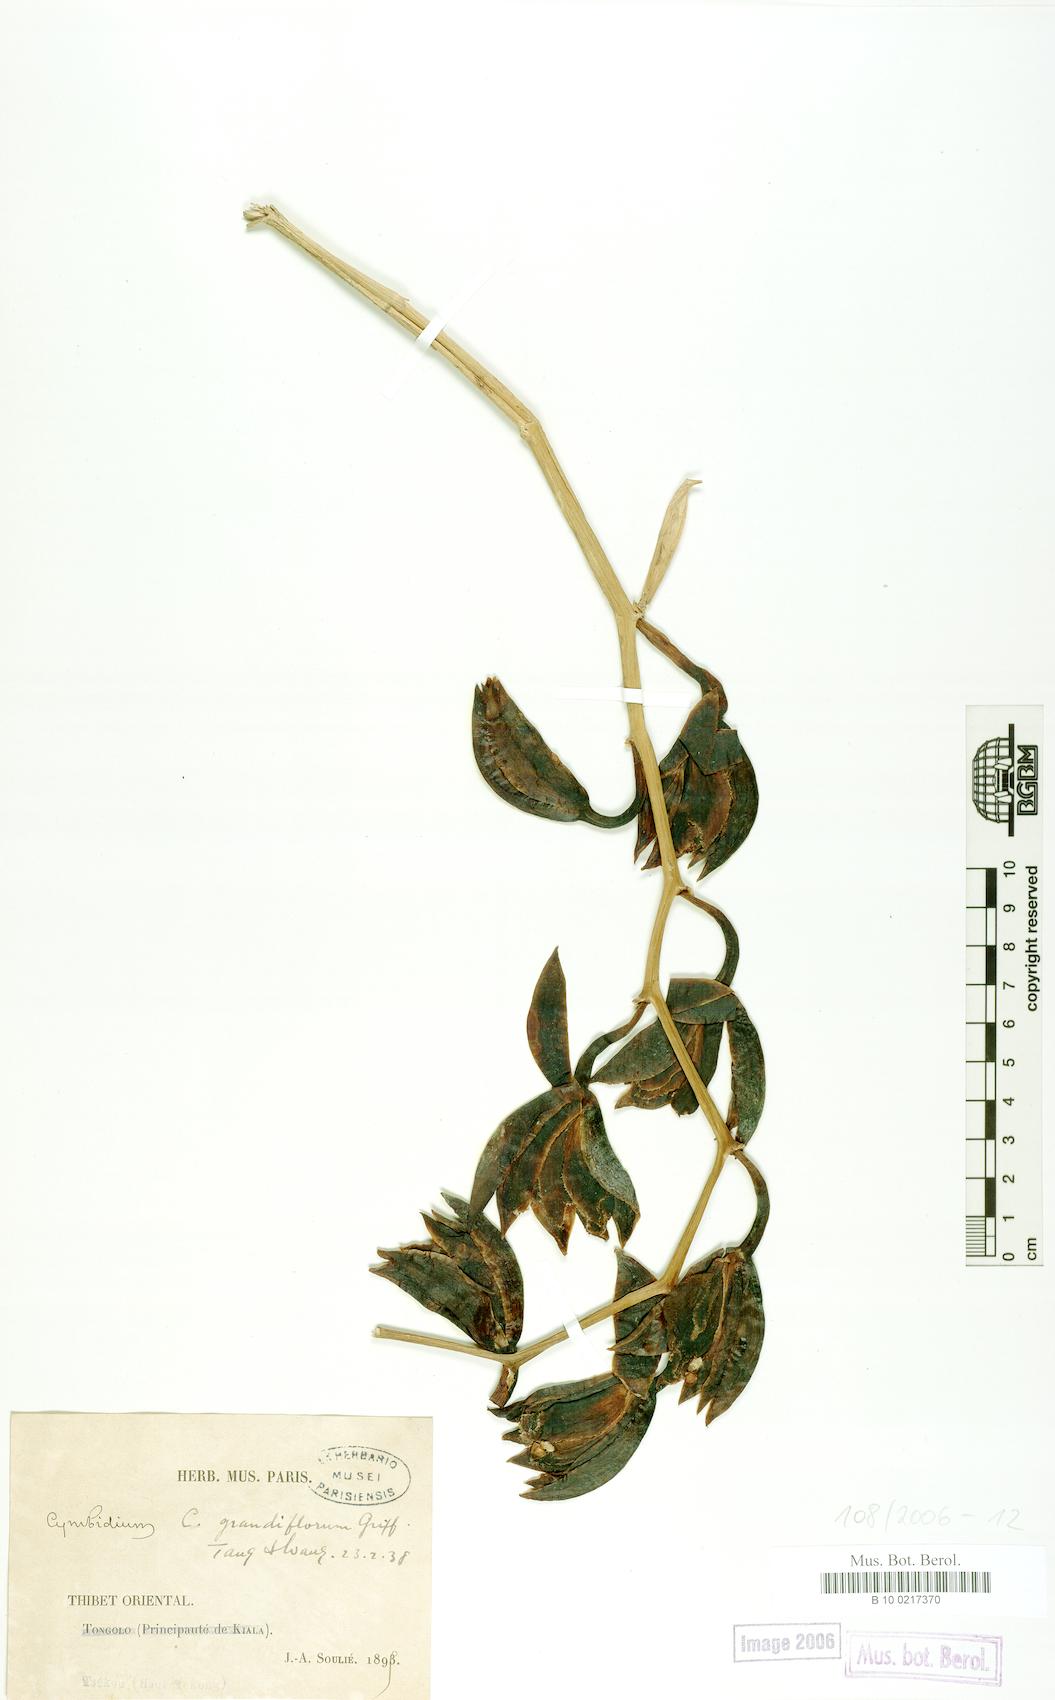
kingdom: Plantae
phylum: Tracheophyta
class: Liliopsida
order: Asparagales
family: Orchidaceae
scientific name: Orchidaceae
